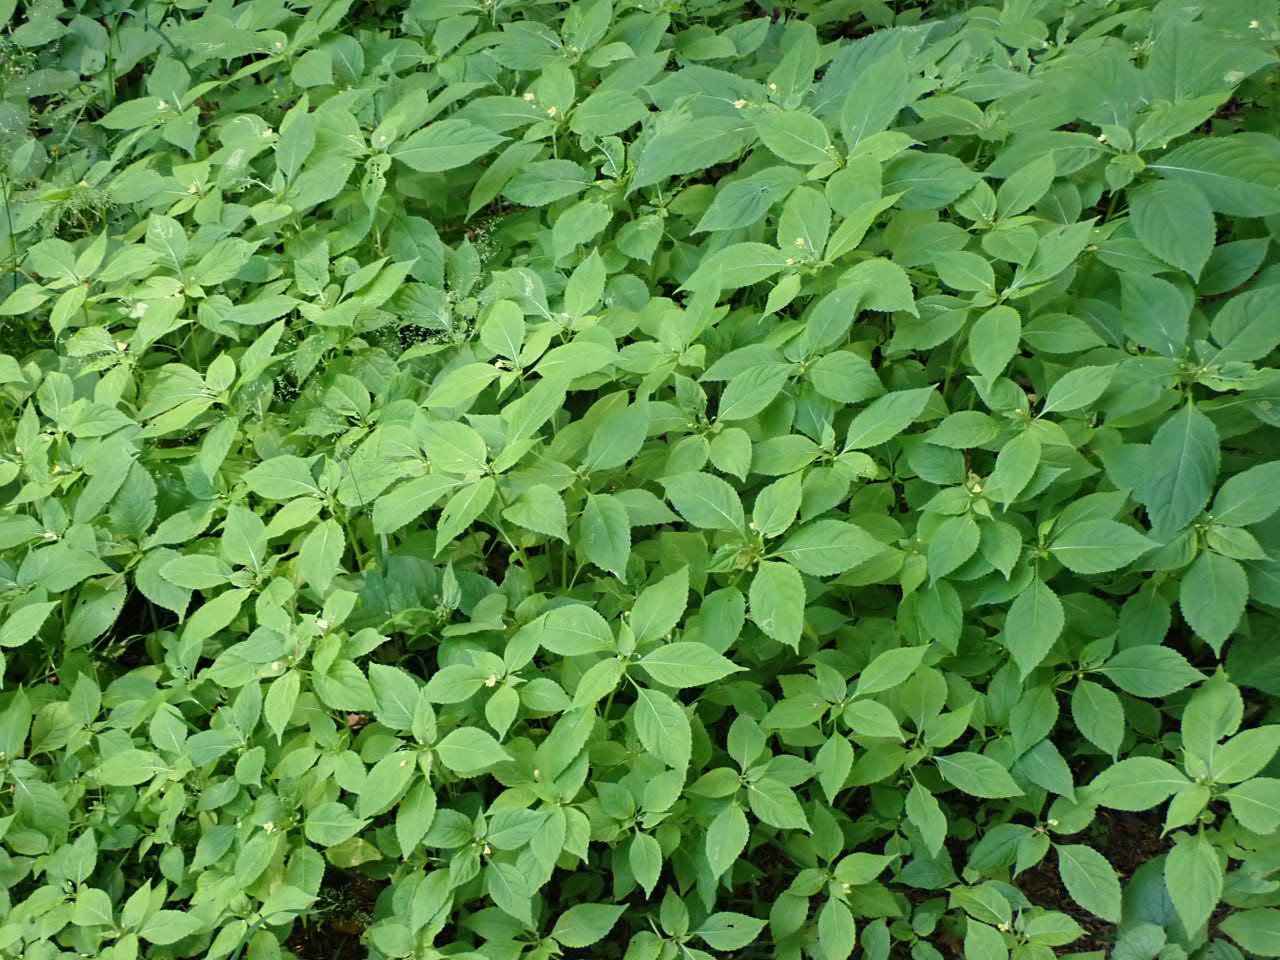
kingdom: Plantae
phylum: Tracheophyta
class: Magnoliopsida
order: Ericales
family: Balsaminaceae
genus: Impatiens
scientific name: Impatiens parviflora
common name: Småblomstret balsamin
